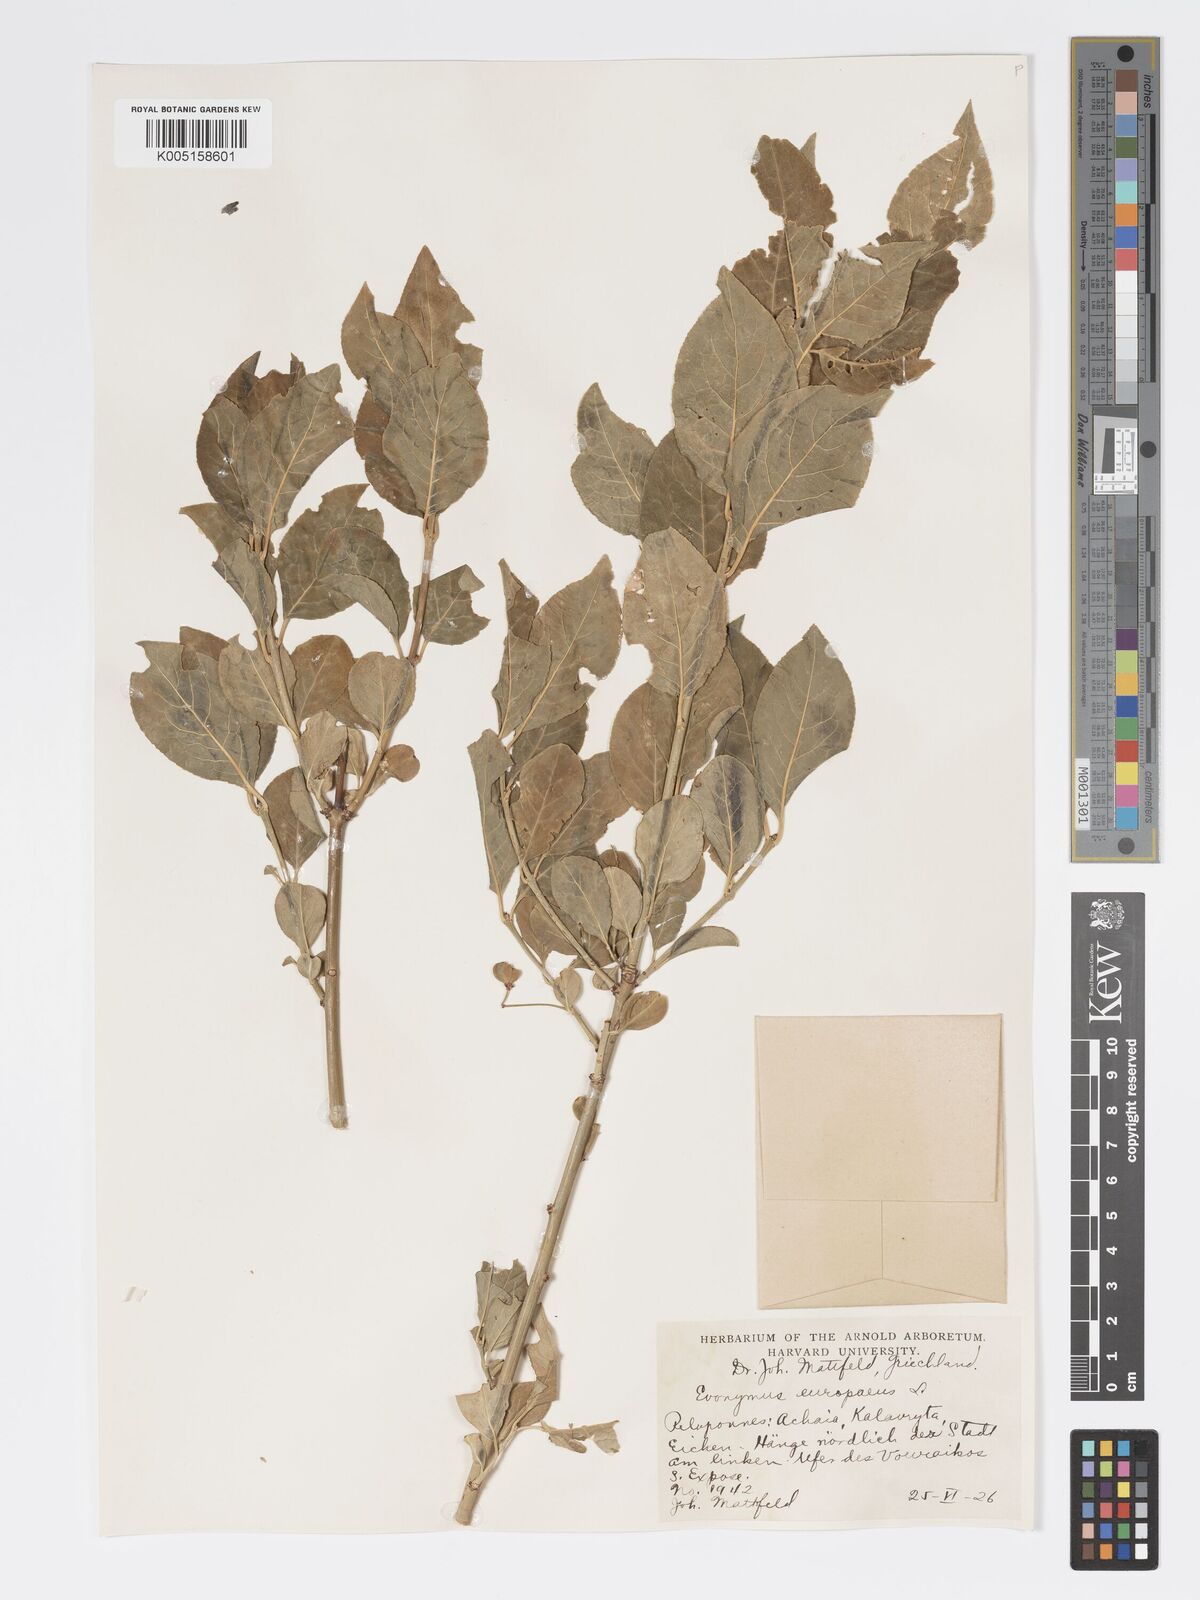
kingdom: Plantae
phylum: Tracheophyta
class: Magnoliopsida
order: Celastrales
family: Celastraceae
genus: Euonymus
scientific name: Euonymus europaeus
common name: Spindle
